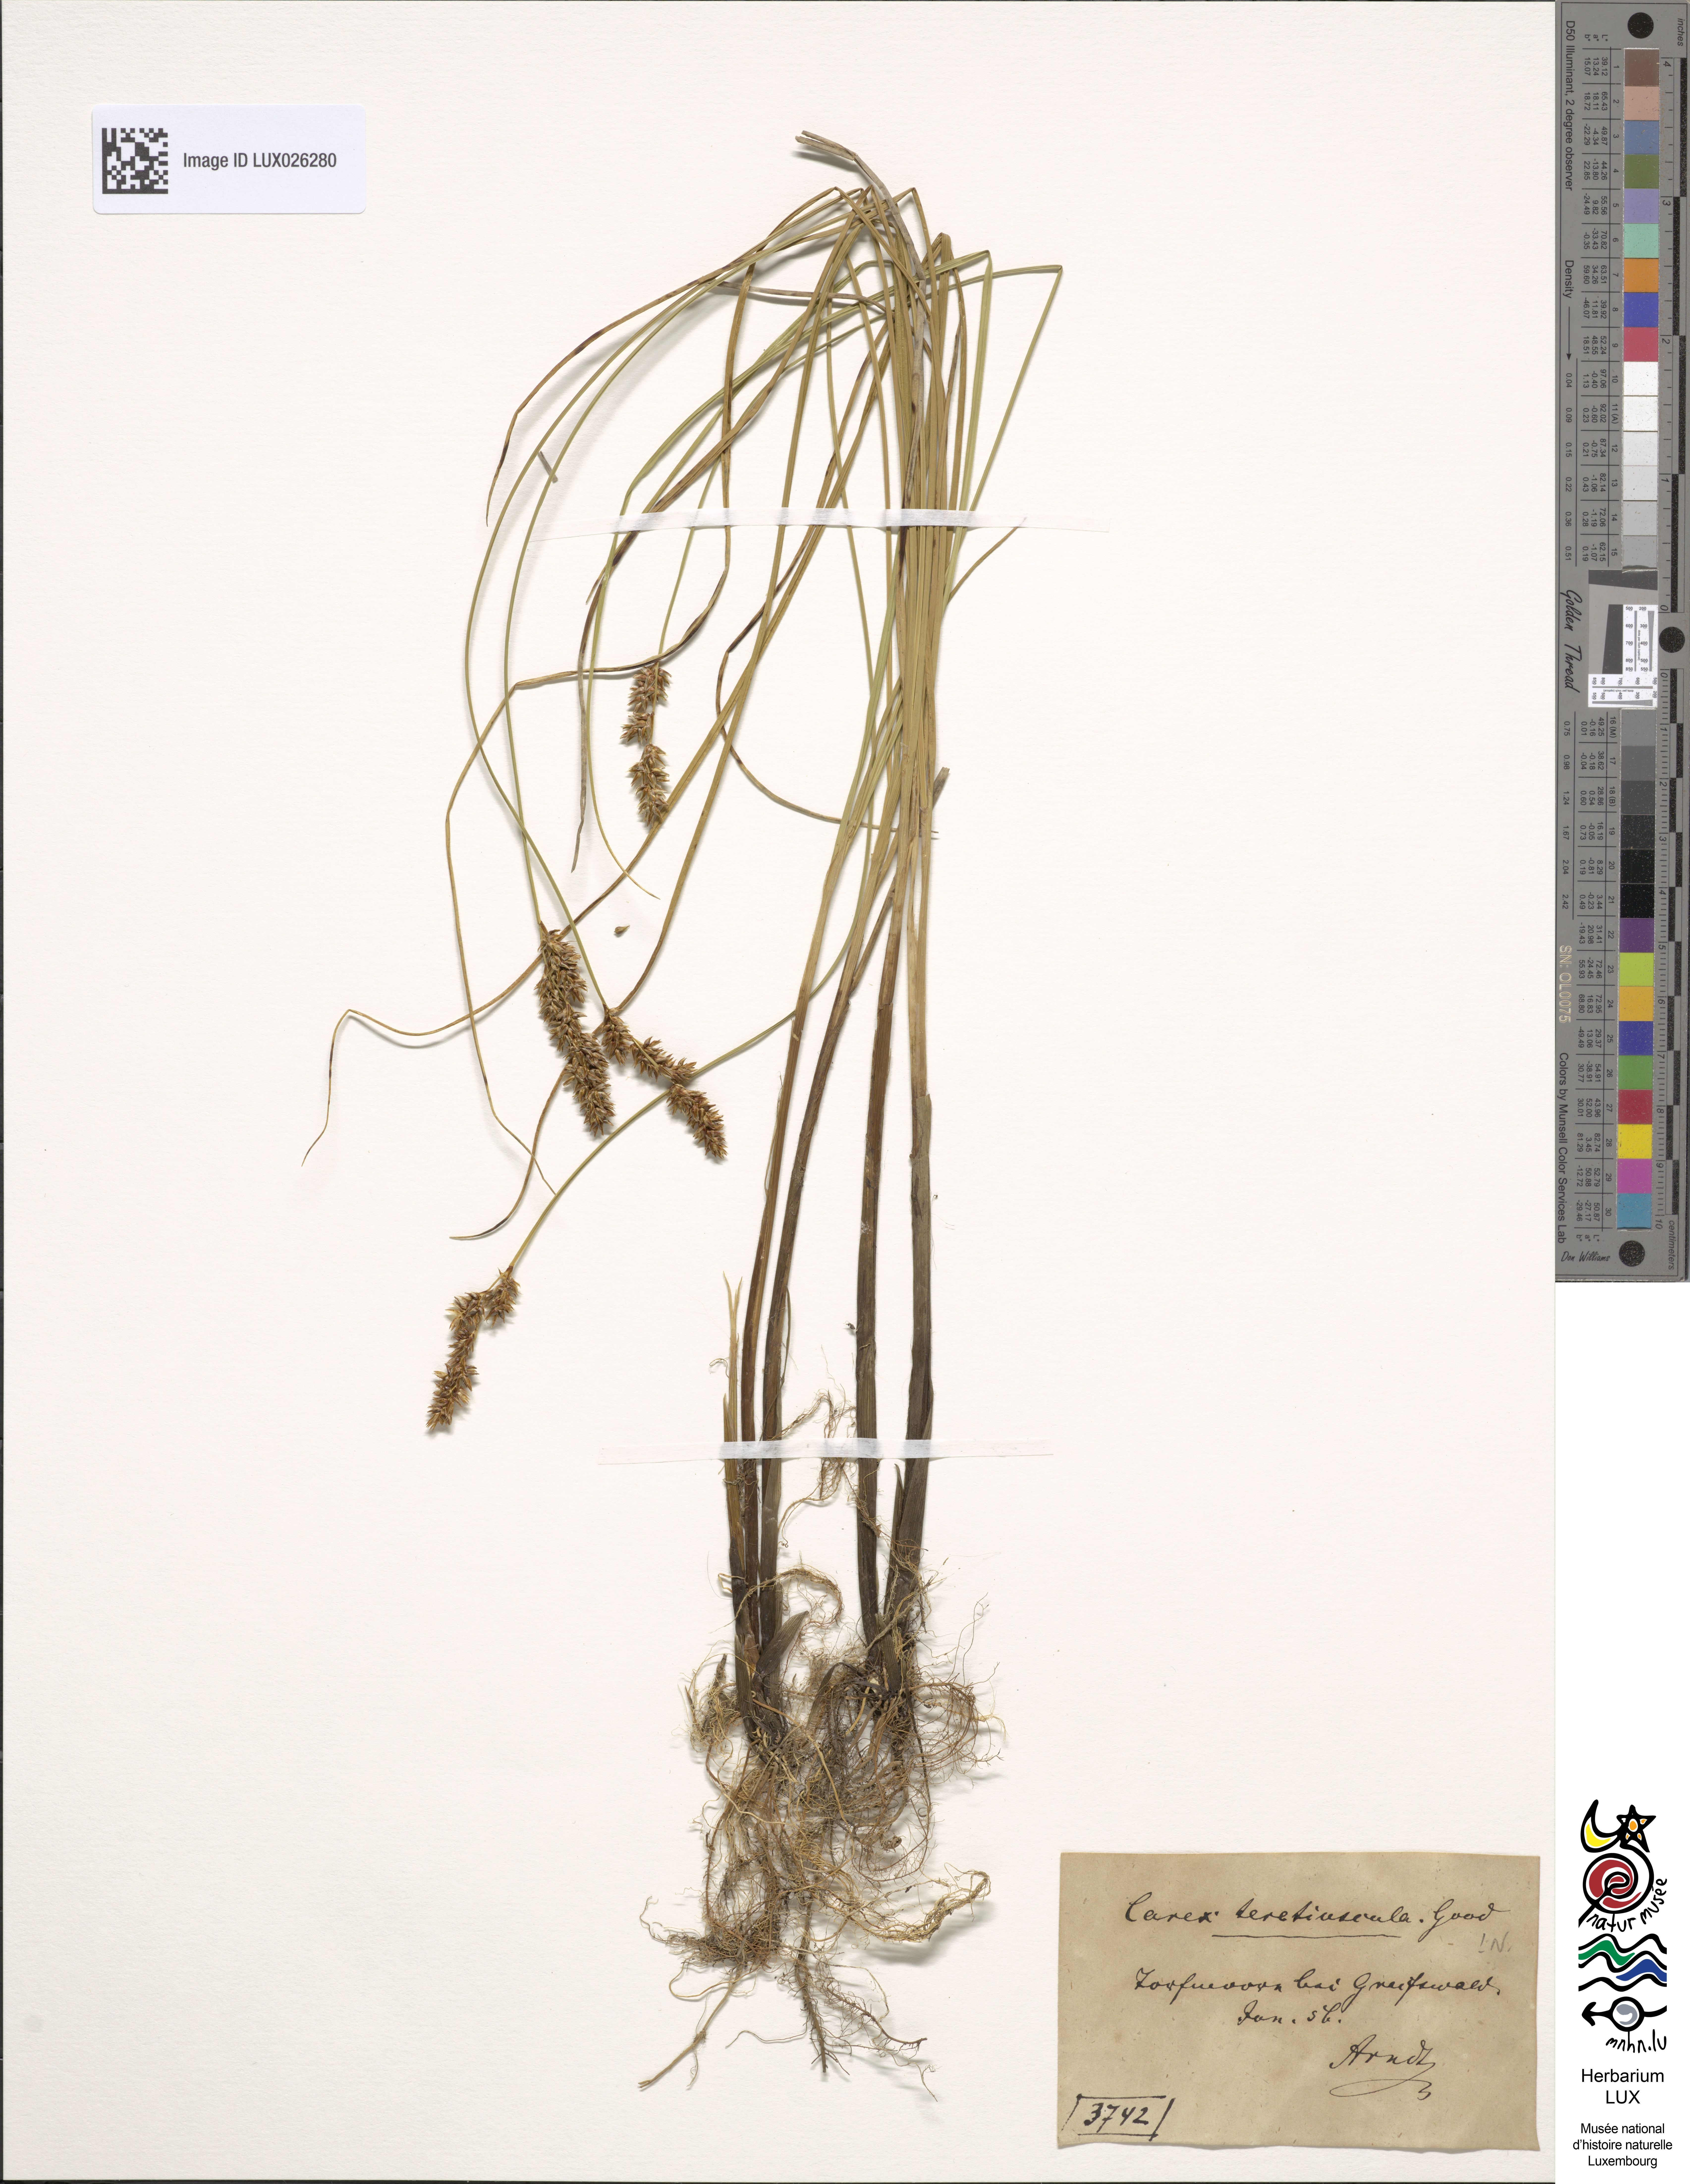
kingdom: Plantae
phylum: Tracheophyta
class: Liliopsida
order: Poales
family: Cyperaceae
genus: Carex
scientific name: Carex diandra
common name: Lesser tussock-sedge
